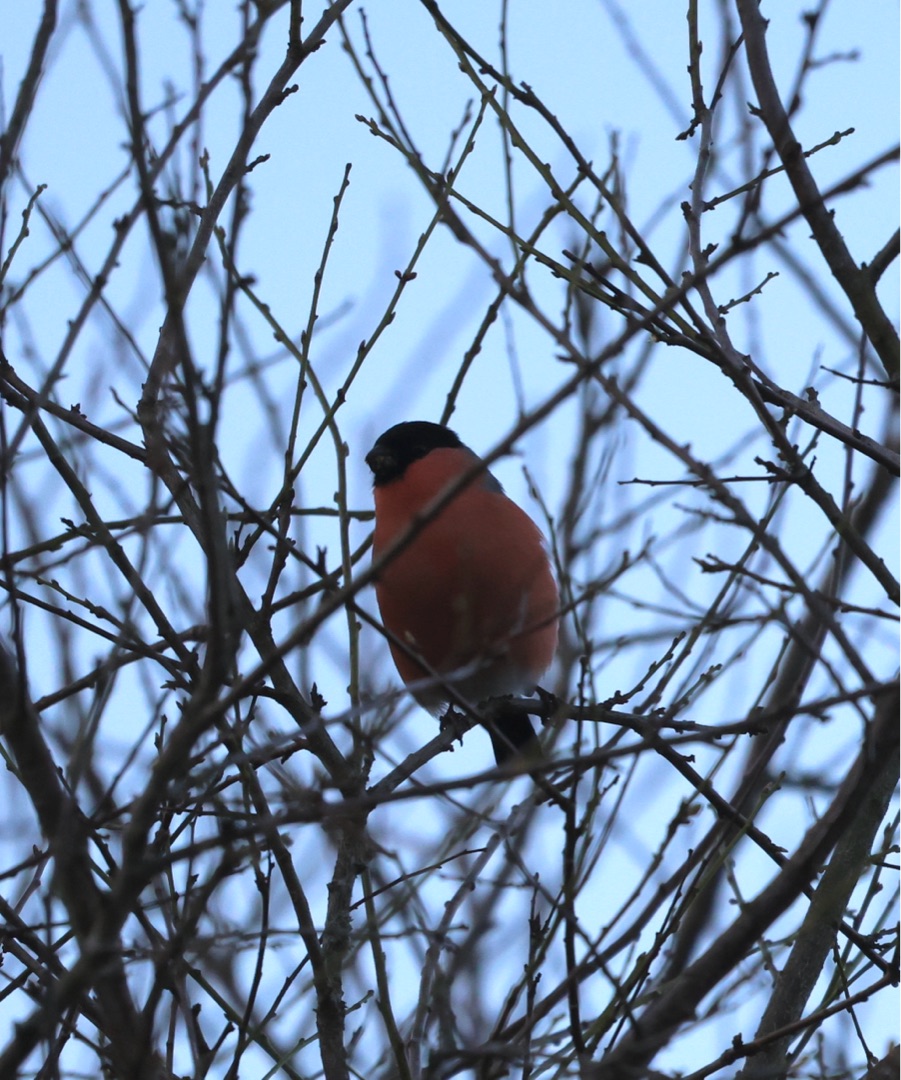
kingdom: Animalia
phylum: Chordata
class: Aves
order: Passeriformes
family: Fringillidae
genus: Pyrrhula
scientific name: Pyrrhula pyrrhula
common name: Dompap
